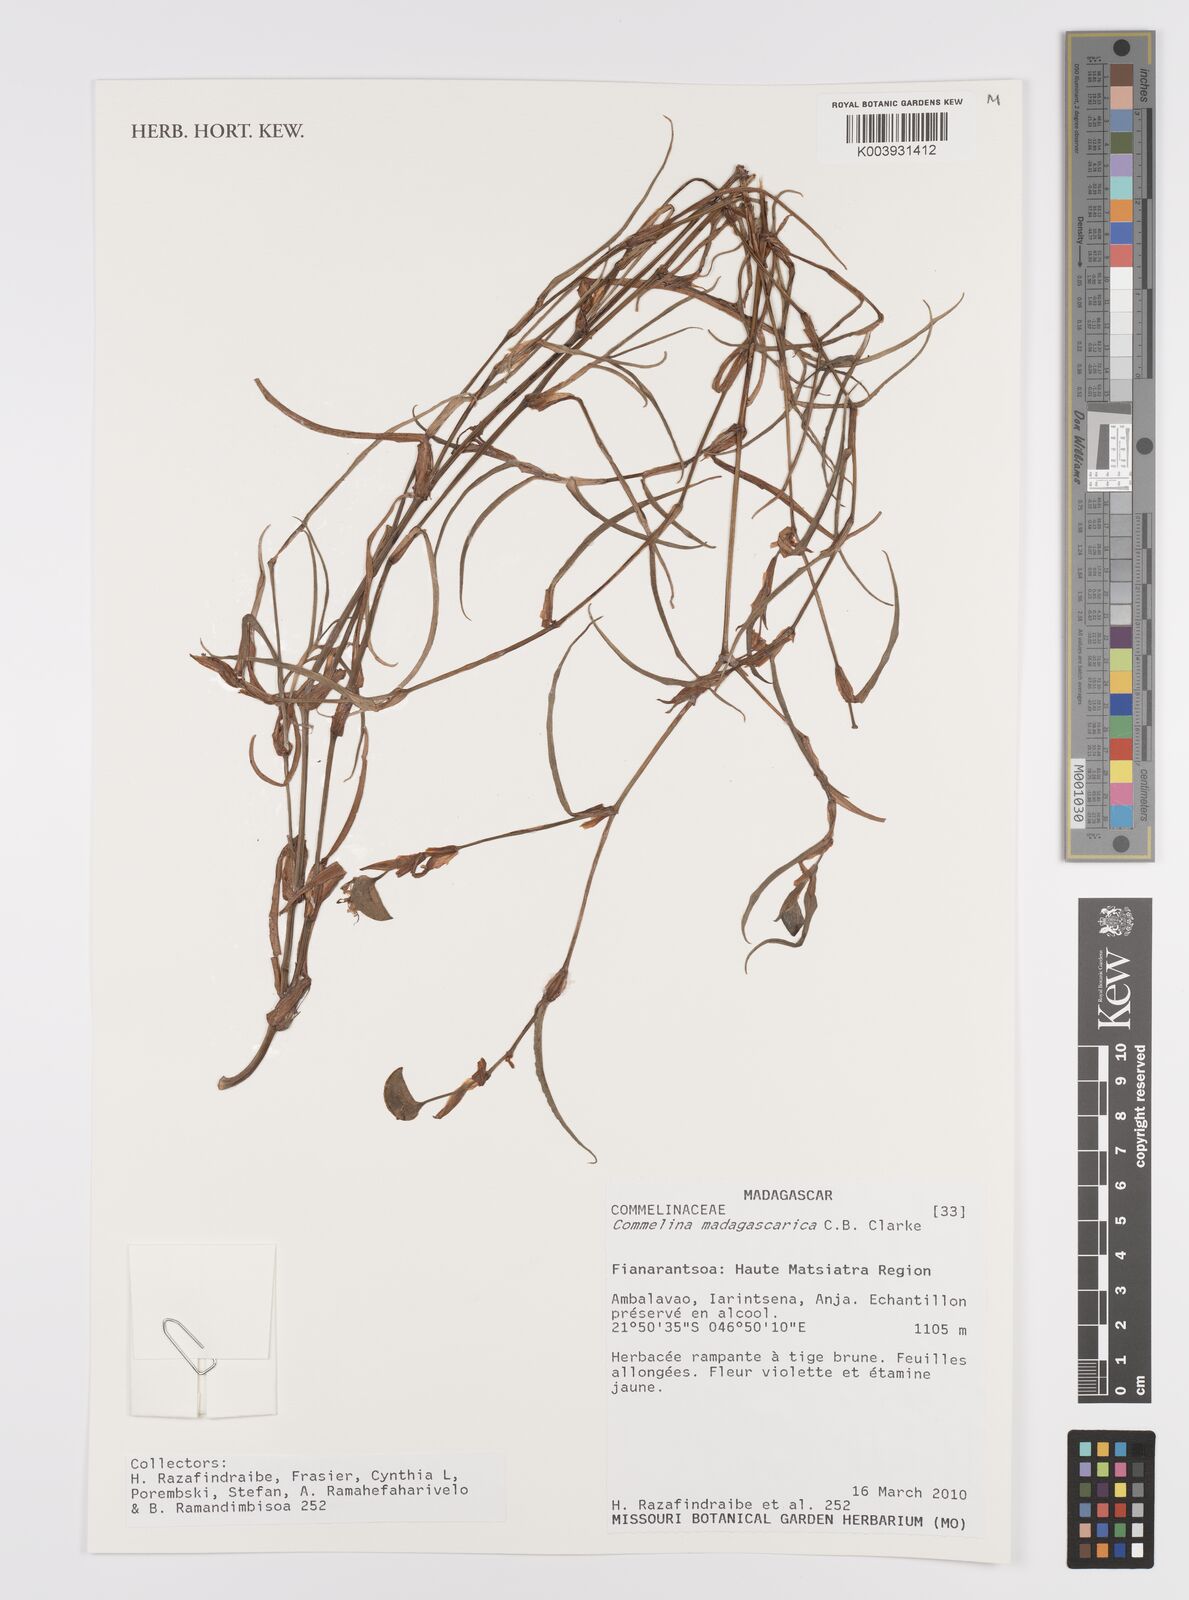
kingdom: Plantae
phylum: Tracheophyta
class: Liliopsida
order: Commelinales
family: Commelinaceae
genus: Commelina
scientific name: Commelina madagascarica
